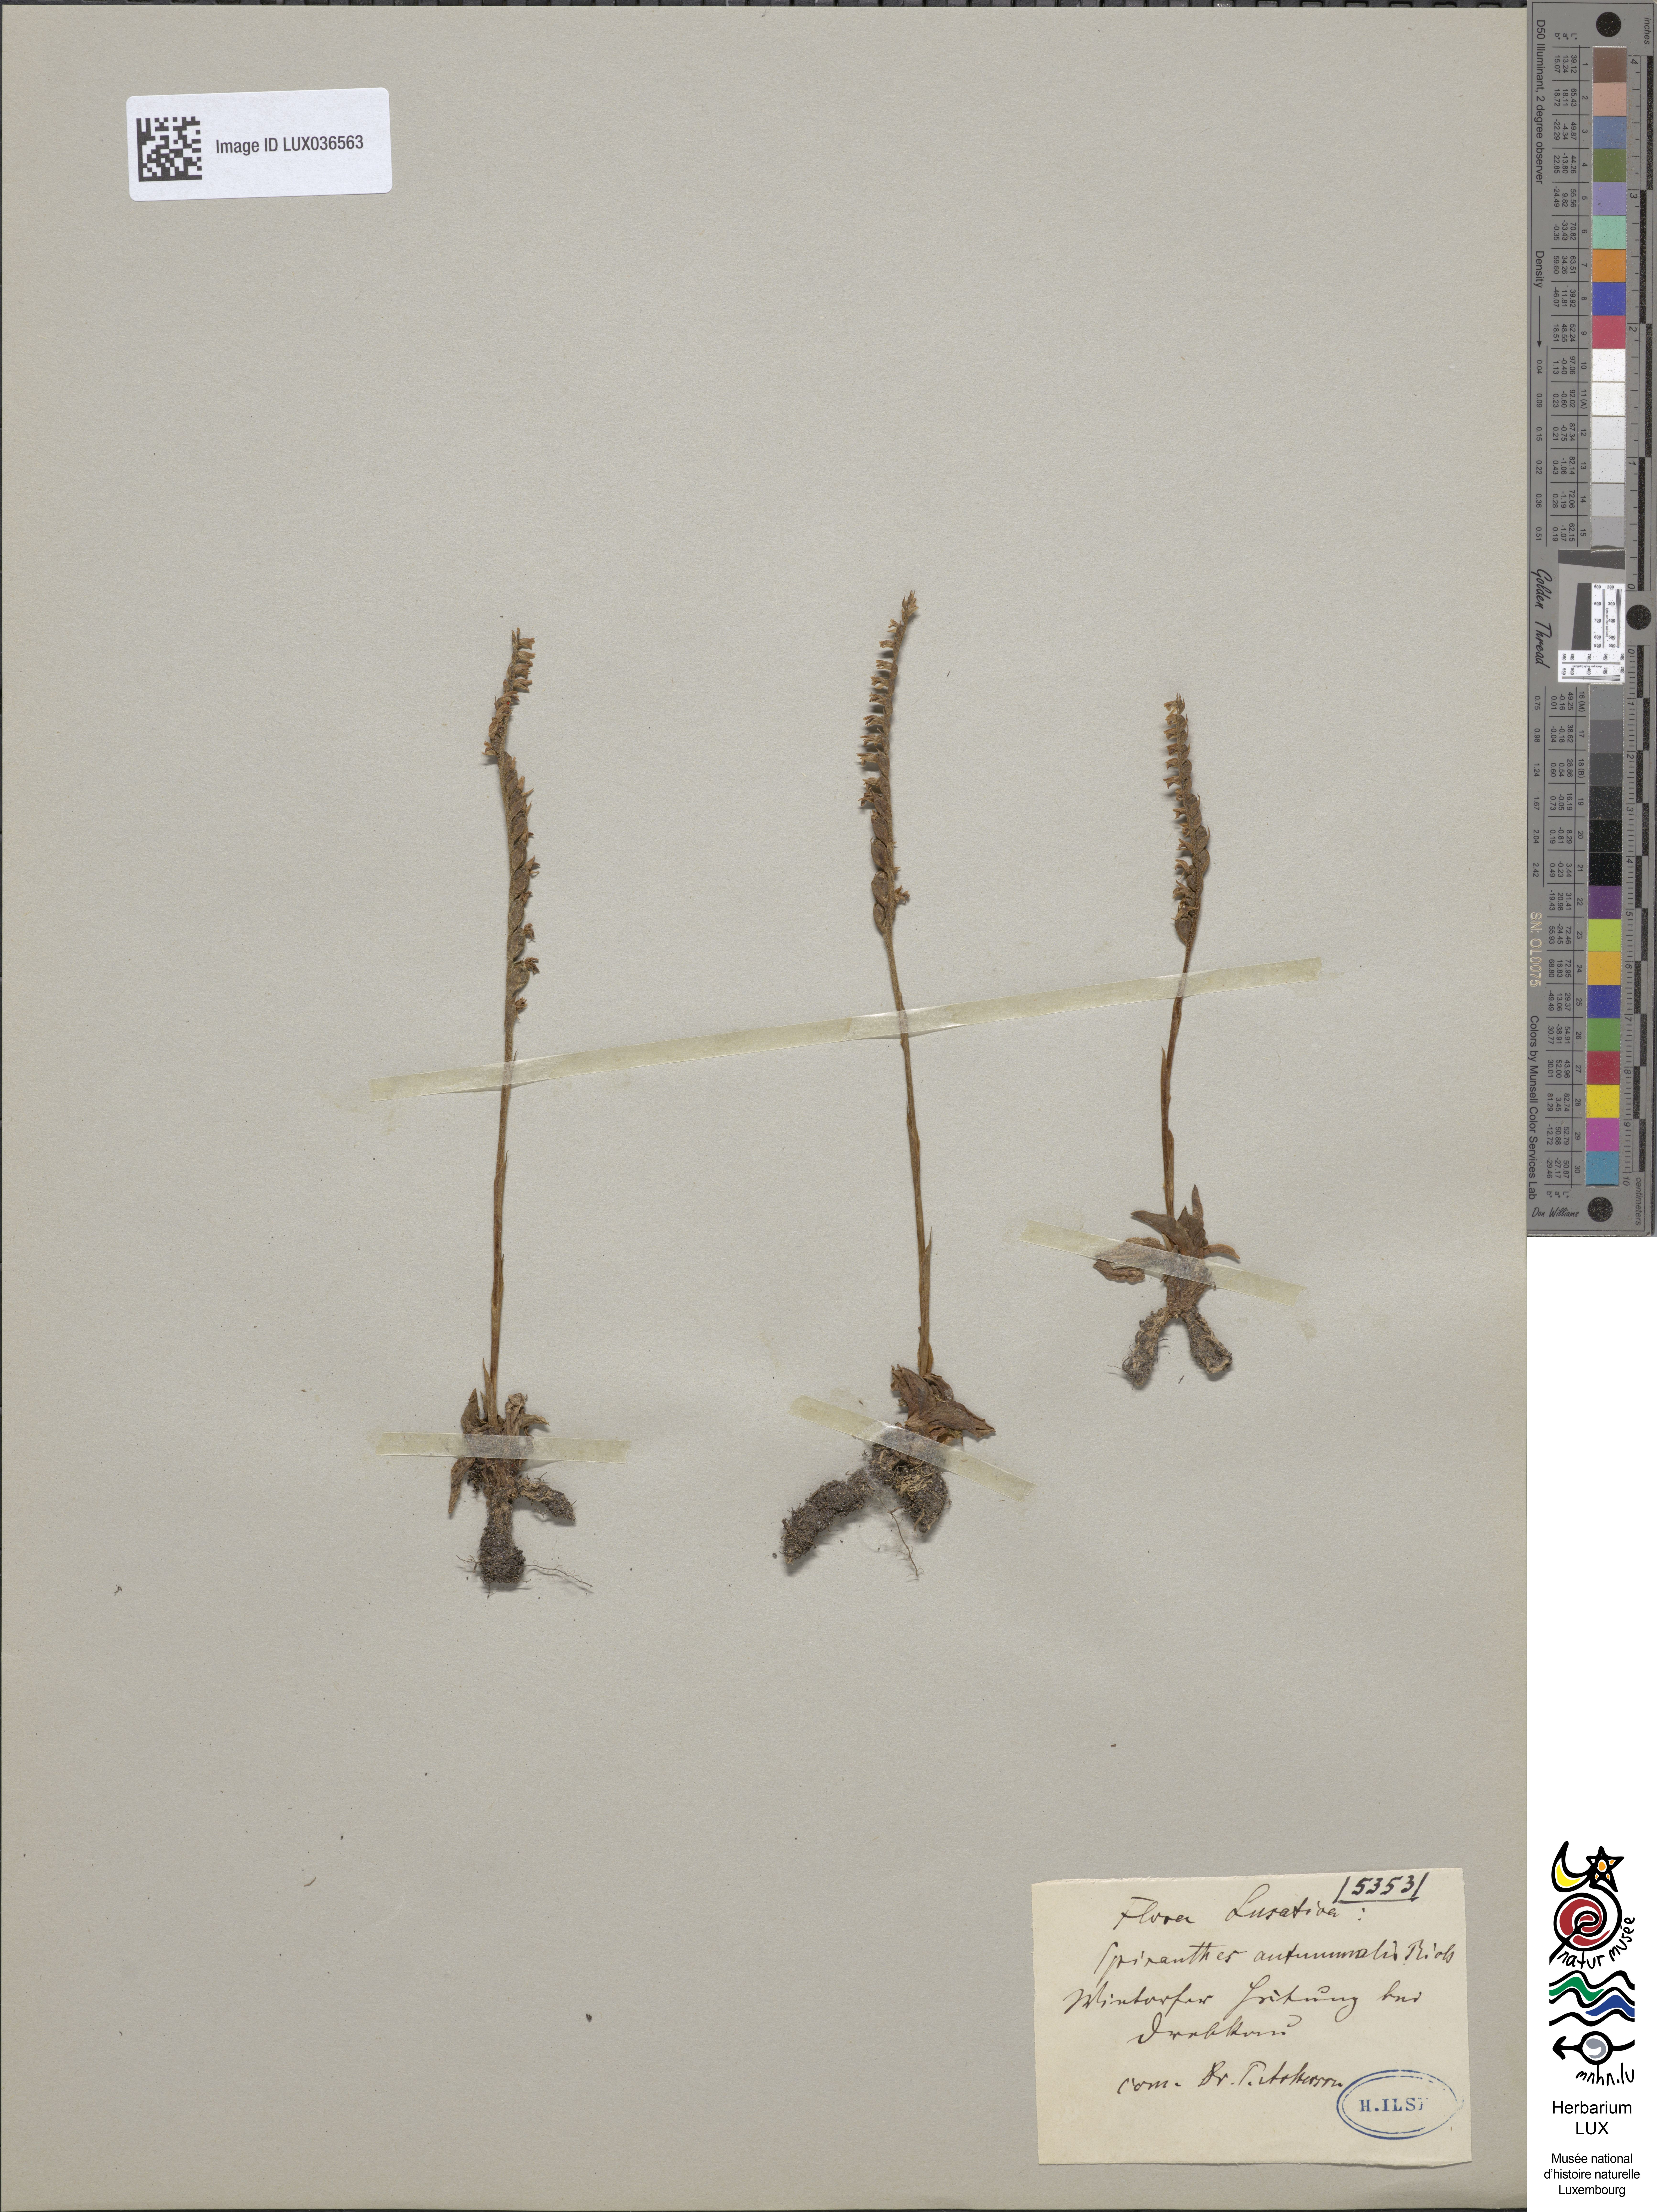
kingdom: Plantae
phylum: Tracheophyta
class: Liliopsida
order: Asparagales
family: Orchidaceae
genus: Spiranthes
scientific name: Spiranthes spiralis
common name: Autumn lady's-tresses
